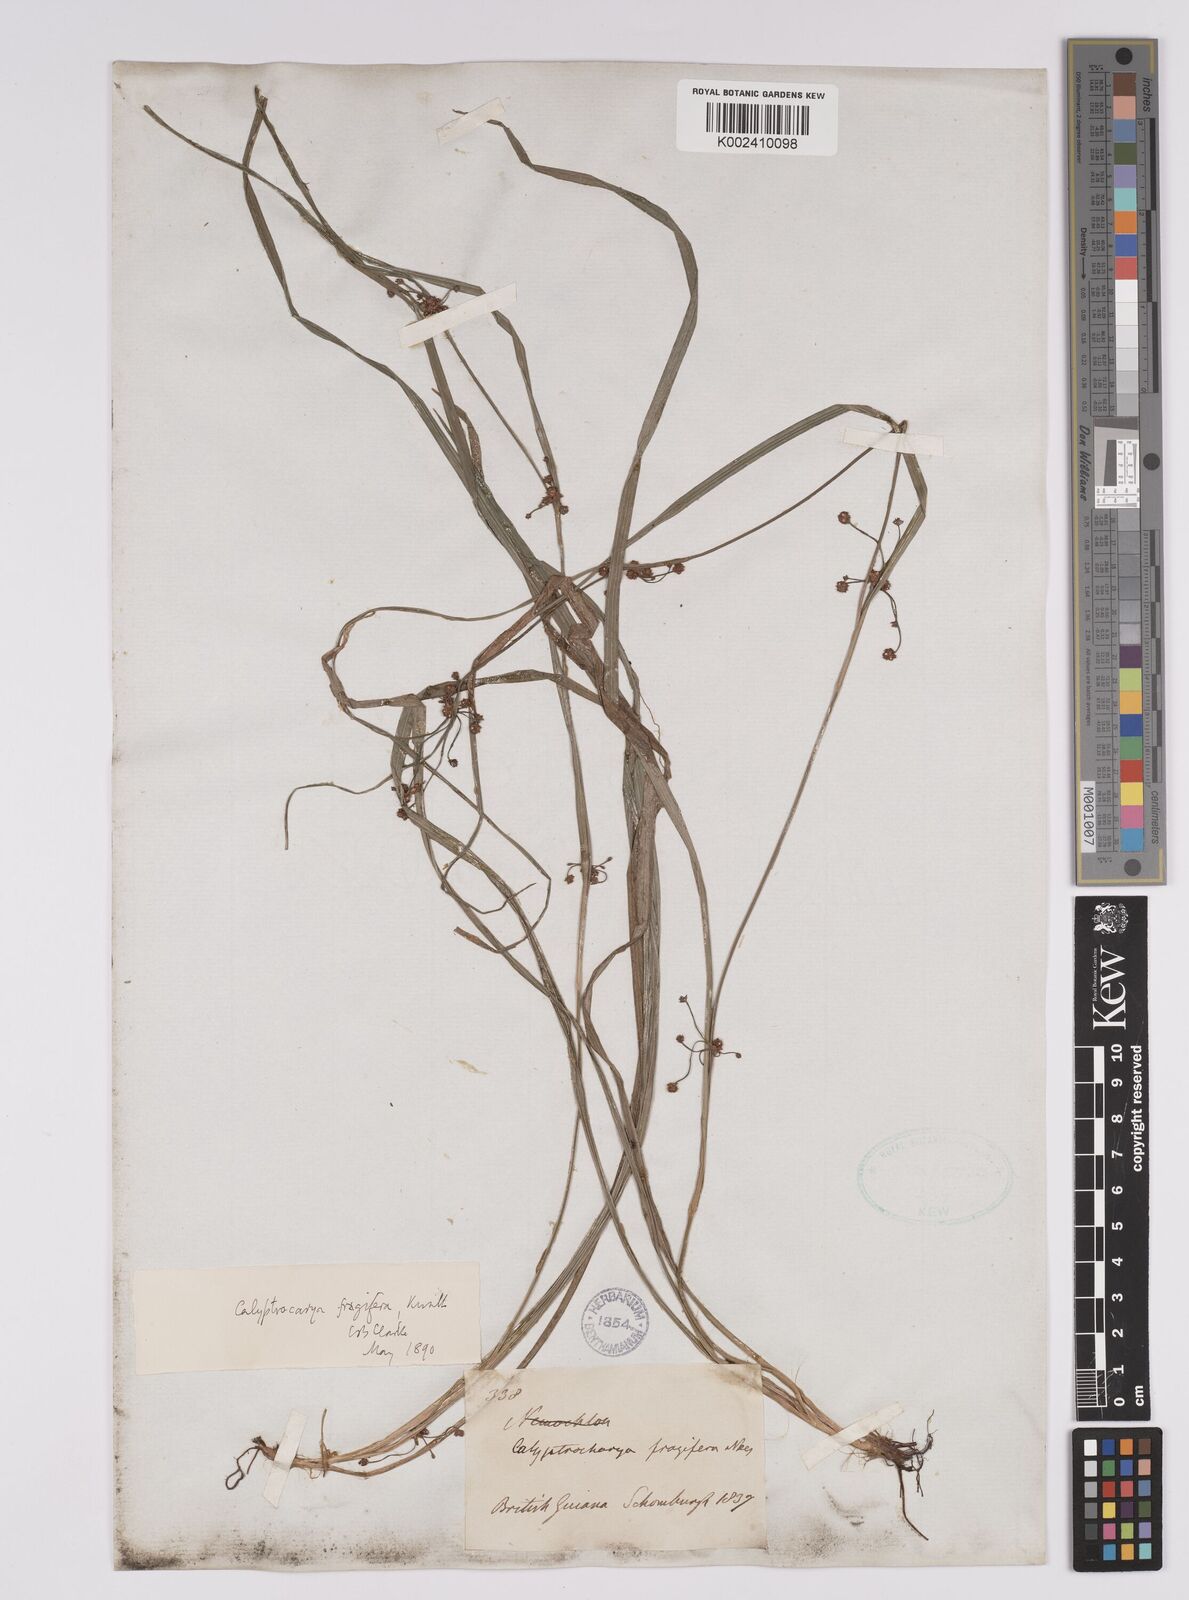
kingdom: Plantae
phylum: Tracheophyta
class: Liliopsida
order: Poales
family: Cyperaceae
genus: Calyptrocarya
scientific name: Calyptrocarya glomerulata
